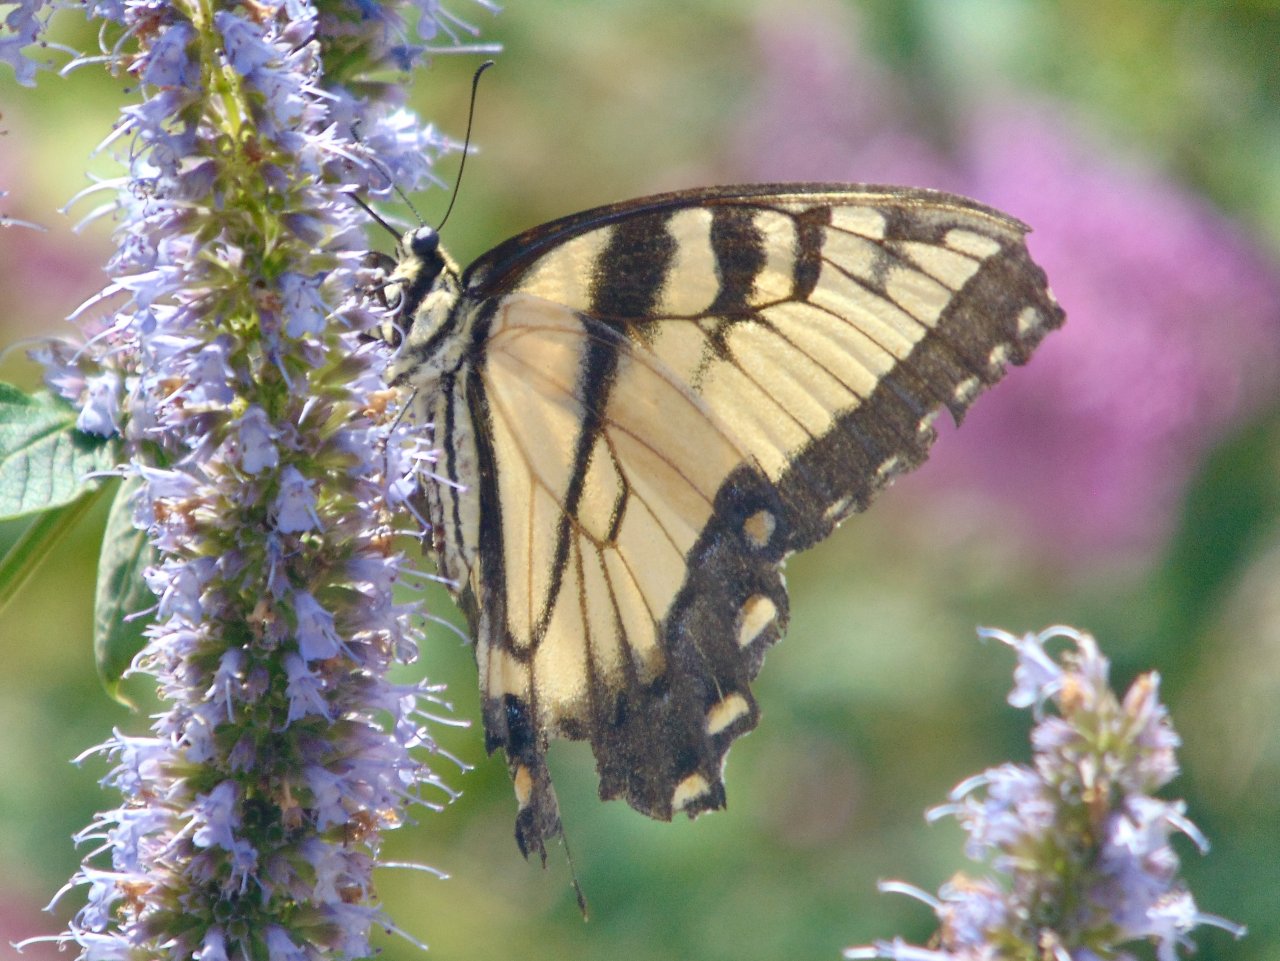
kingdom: Animalia
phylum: Arthropoda
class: Insecta
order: Lepidoptera
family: Papilionidae
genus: Pterourus
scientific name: Pterourus glaucus
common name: Eastern Tiger Swallowtail
